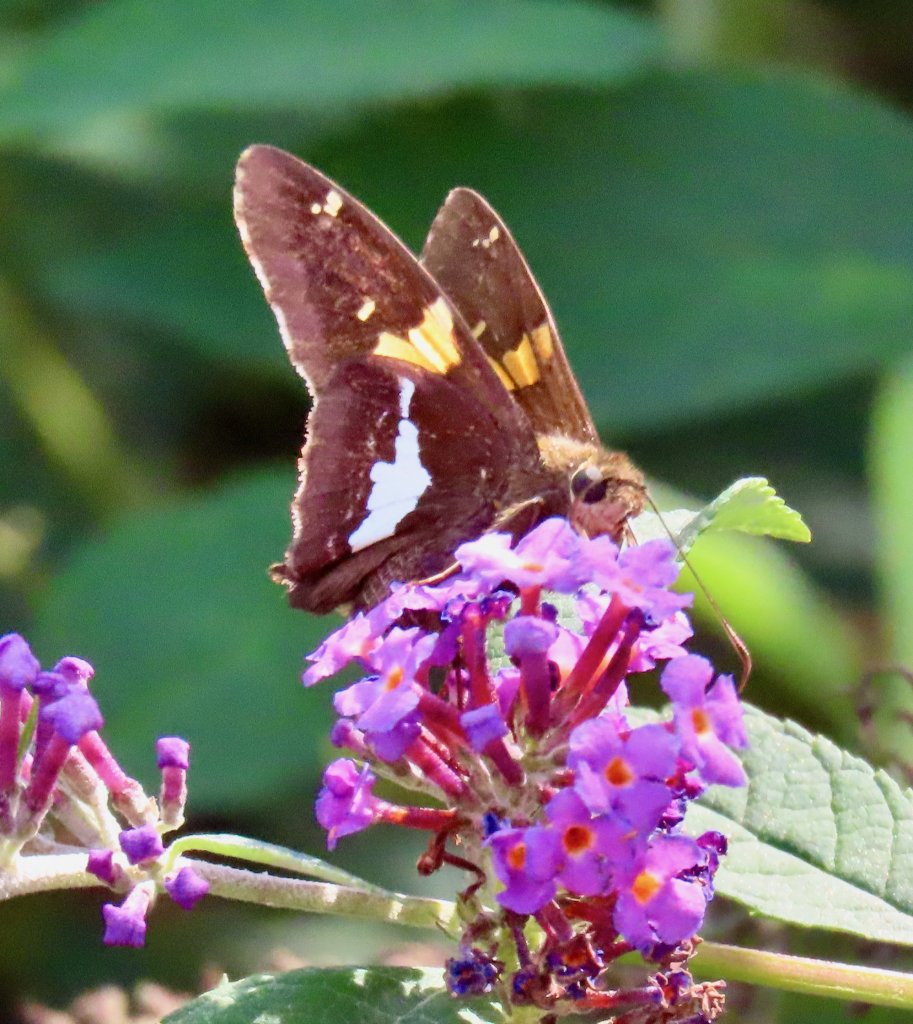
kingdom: Animalia
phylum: Arthropoda
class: Insecta
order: Lepidoptera
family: Hesperiidae
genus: Epargyreus
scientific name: Epargyreus clarus
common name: Silver-spotted Skipper
